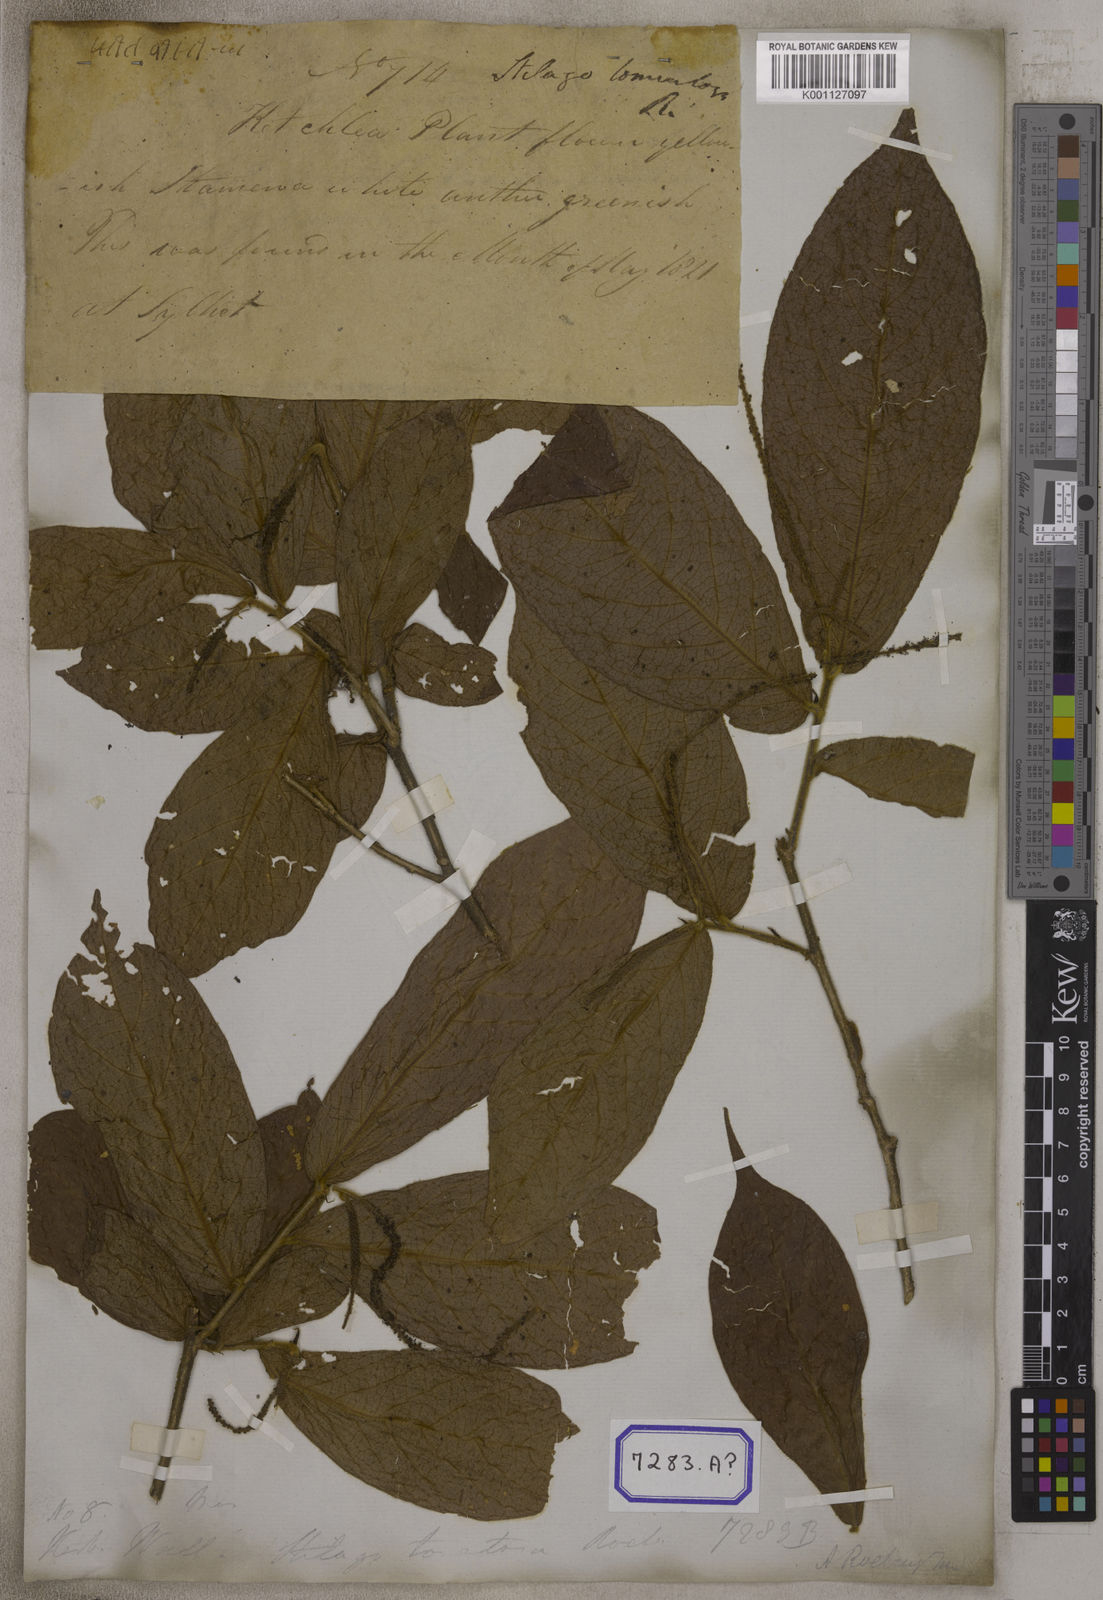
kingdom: Plantae
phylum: Tracheophyta
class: Magnoliopsida
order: Malpighiales
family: Phyllanthaceae
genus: Antidesma
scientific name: Antidesma
